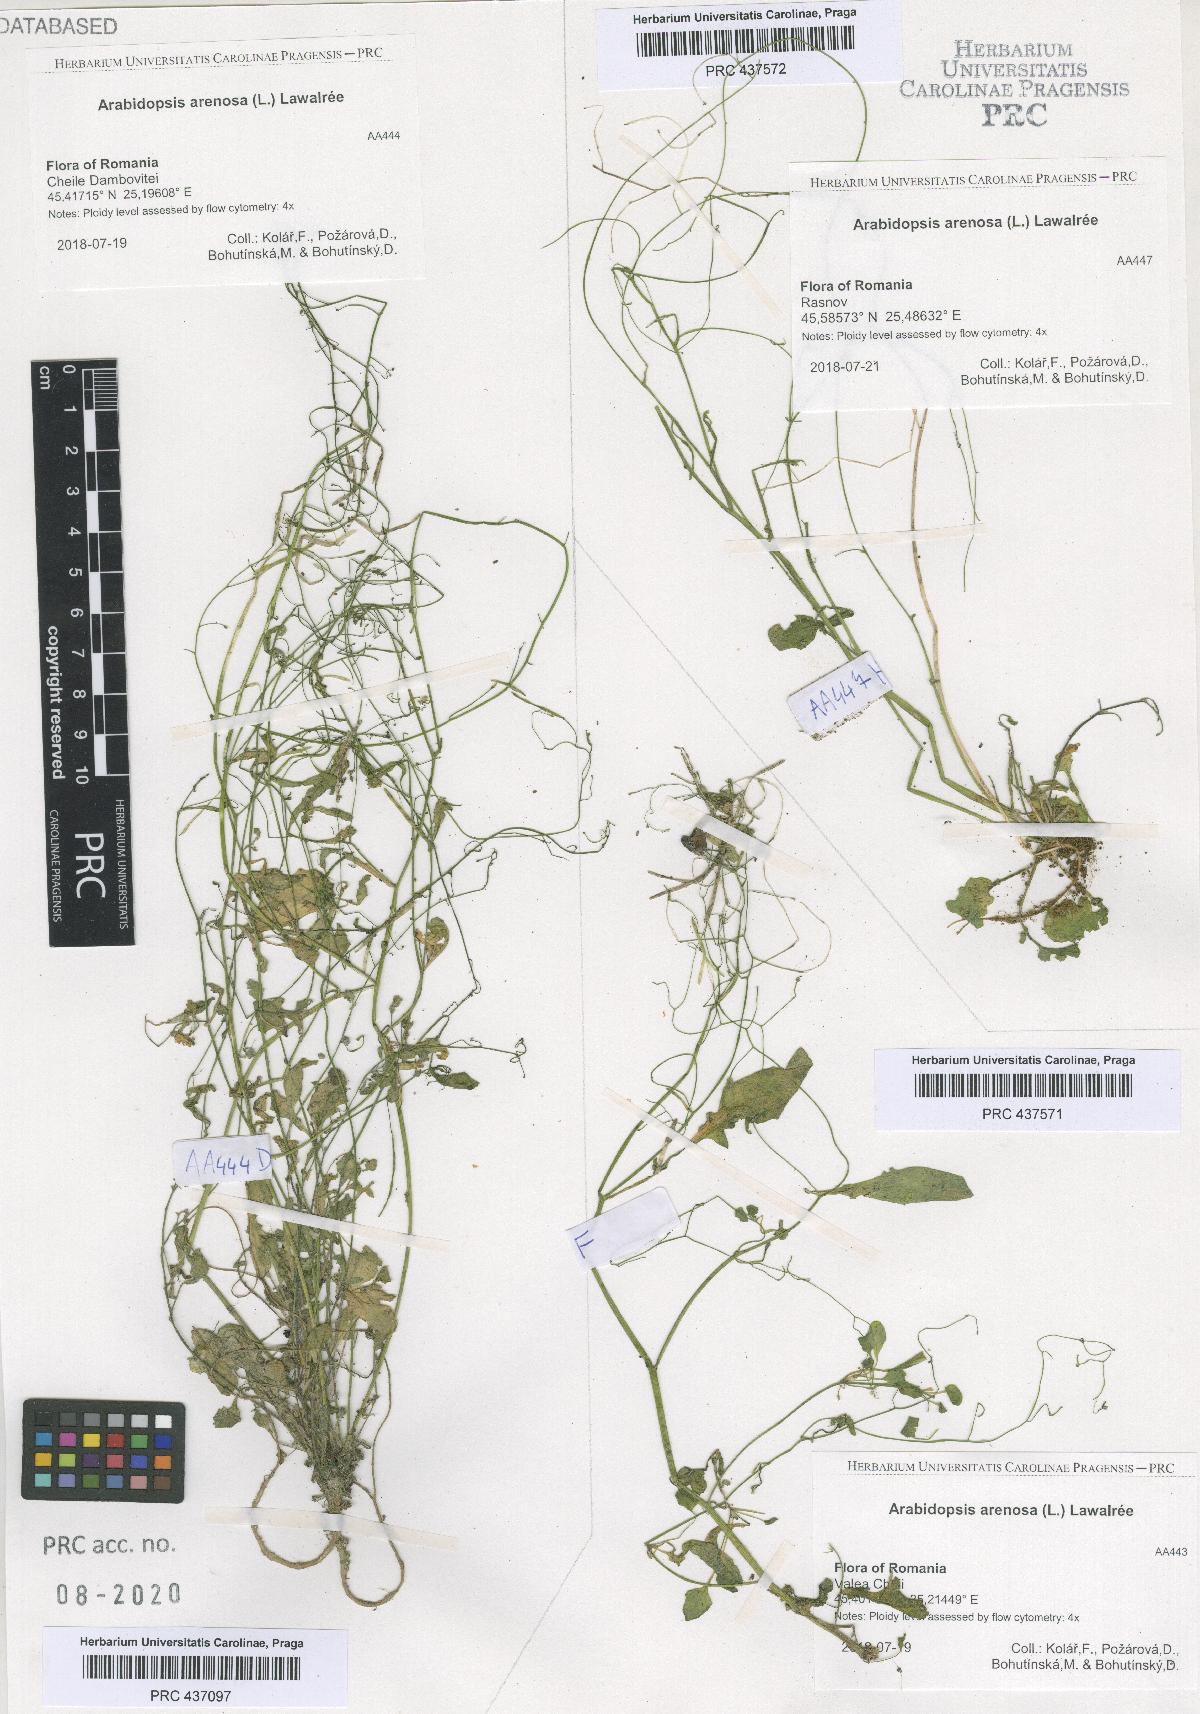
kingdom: Plantae
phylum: Tracheophyta
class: Magnoliopsida
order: Brassicales
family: Brassicaceae
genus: Arabidopsis
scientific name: Arabidopsis arenosa
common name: Sand rock-cress
